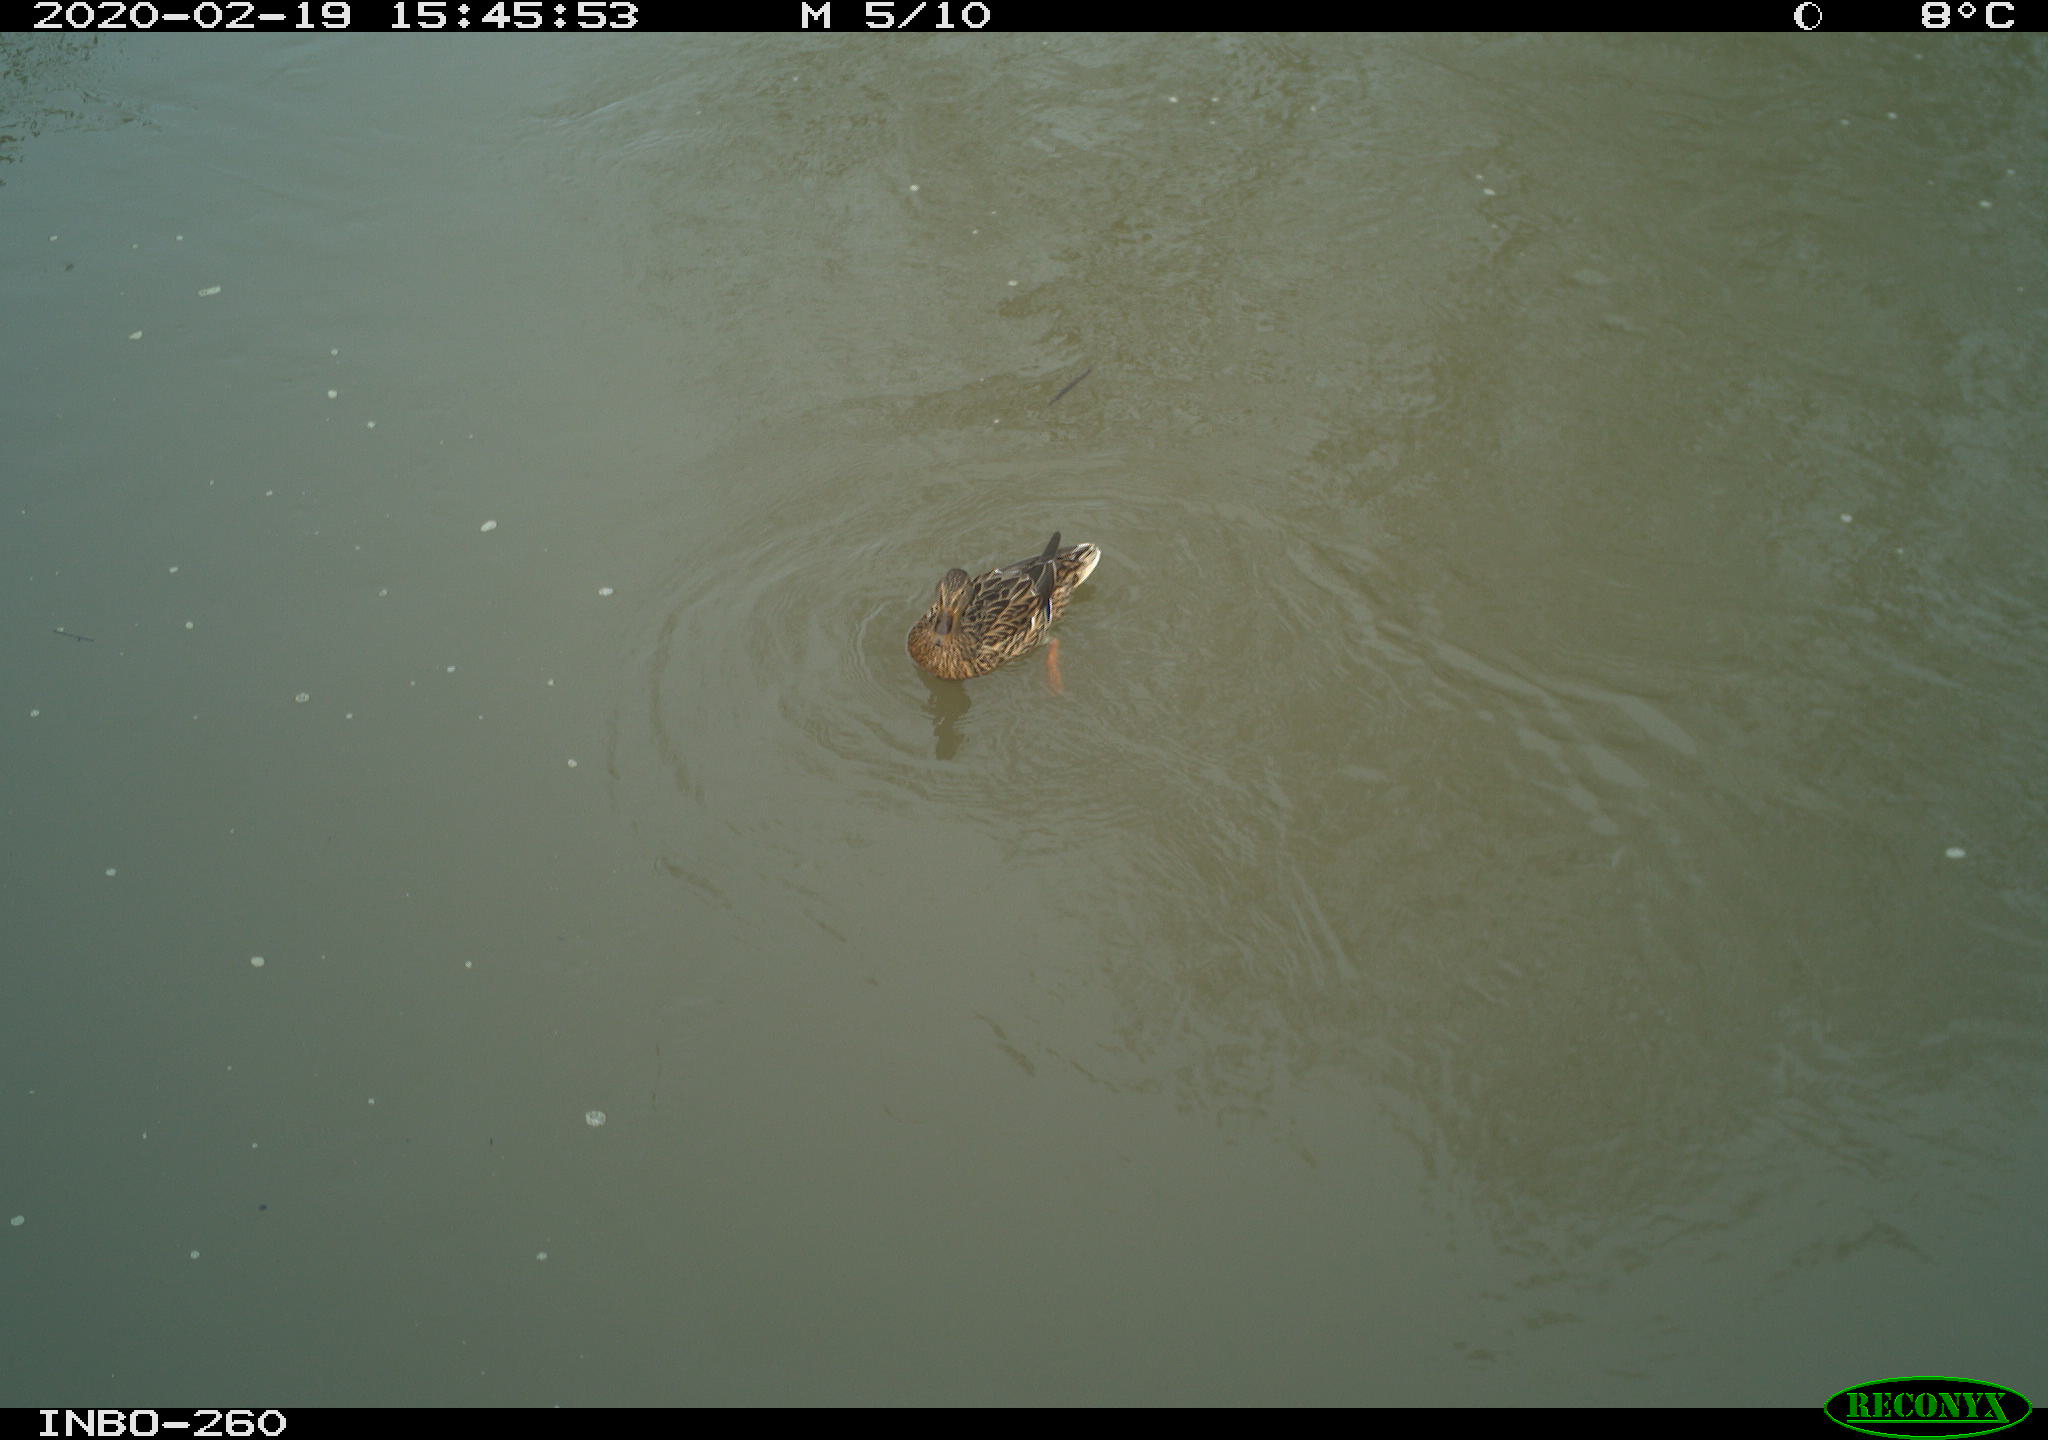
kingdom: Animalia
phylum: Chordata
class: Aves
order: Anseriformes
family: Anatidae
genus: Anas
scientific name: Anas platyrhynchos
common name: Mallard
